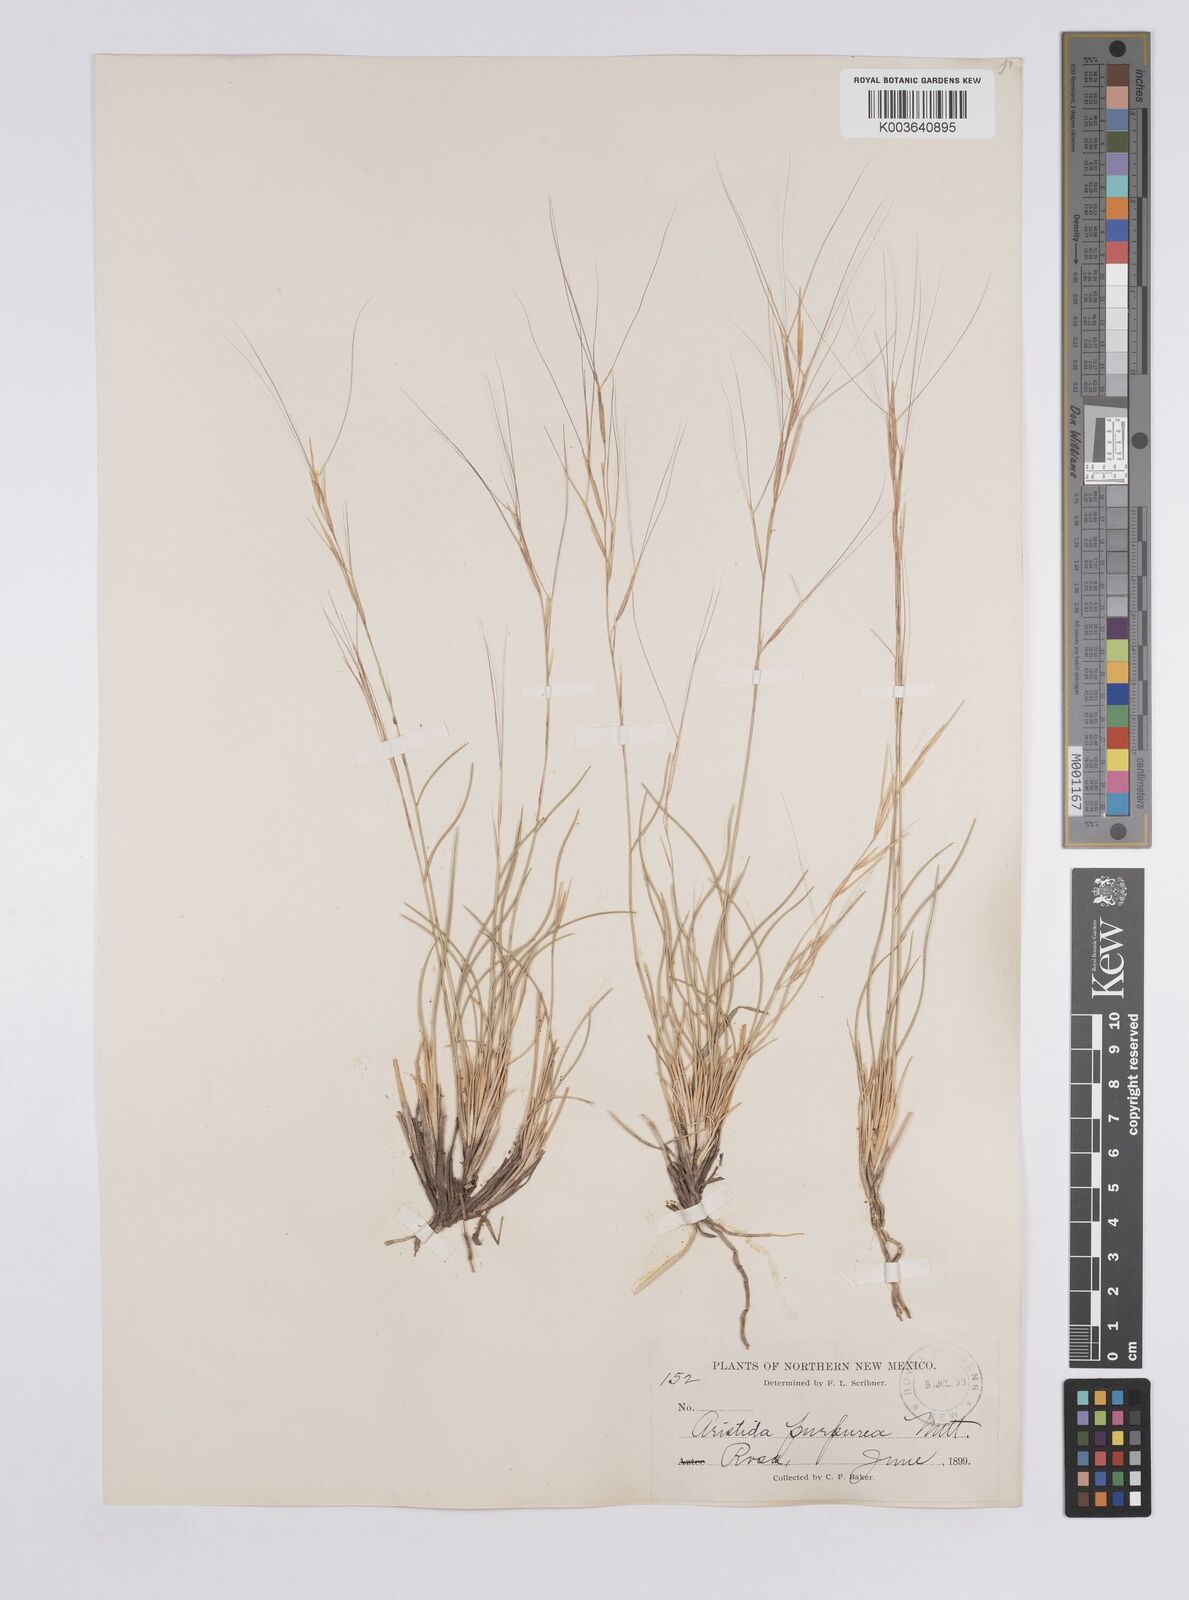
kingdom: Plantae
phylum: Tracheophyta
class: Liliopsida
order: Poales
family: Poaceae
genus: Aristida
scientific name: Aristida purpurea
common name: Purple threeawn
